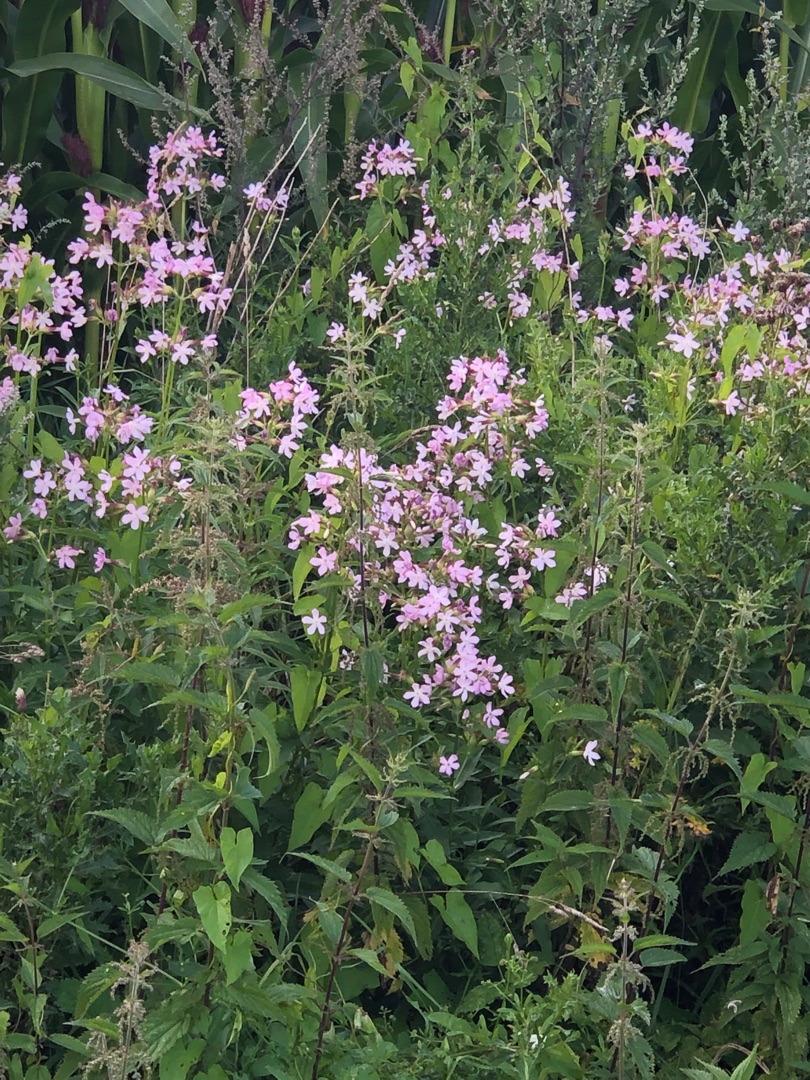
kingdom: Plantae
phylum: Tracheophyta
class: Magnoliopsida
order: Caryophyllales
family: Caryophyllaceae
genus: Saponaria
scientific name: Saponaria officinalis
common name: Sæbeurt
